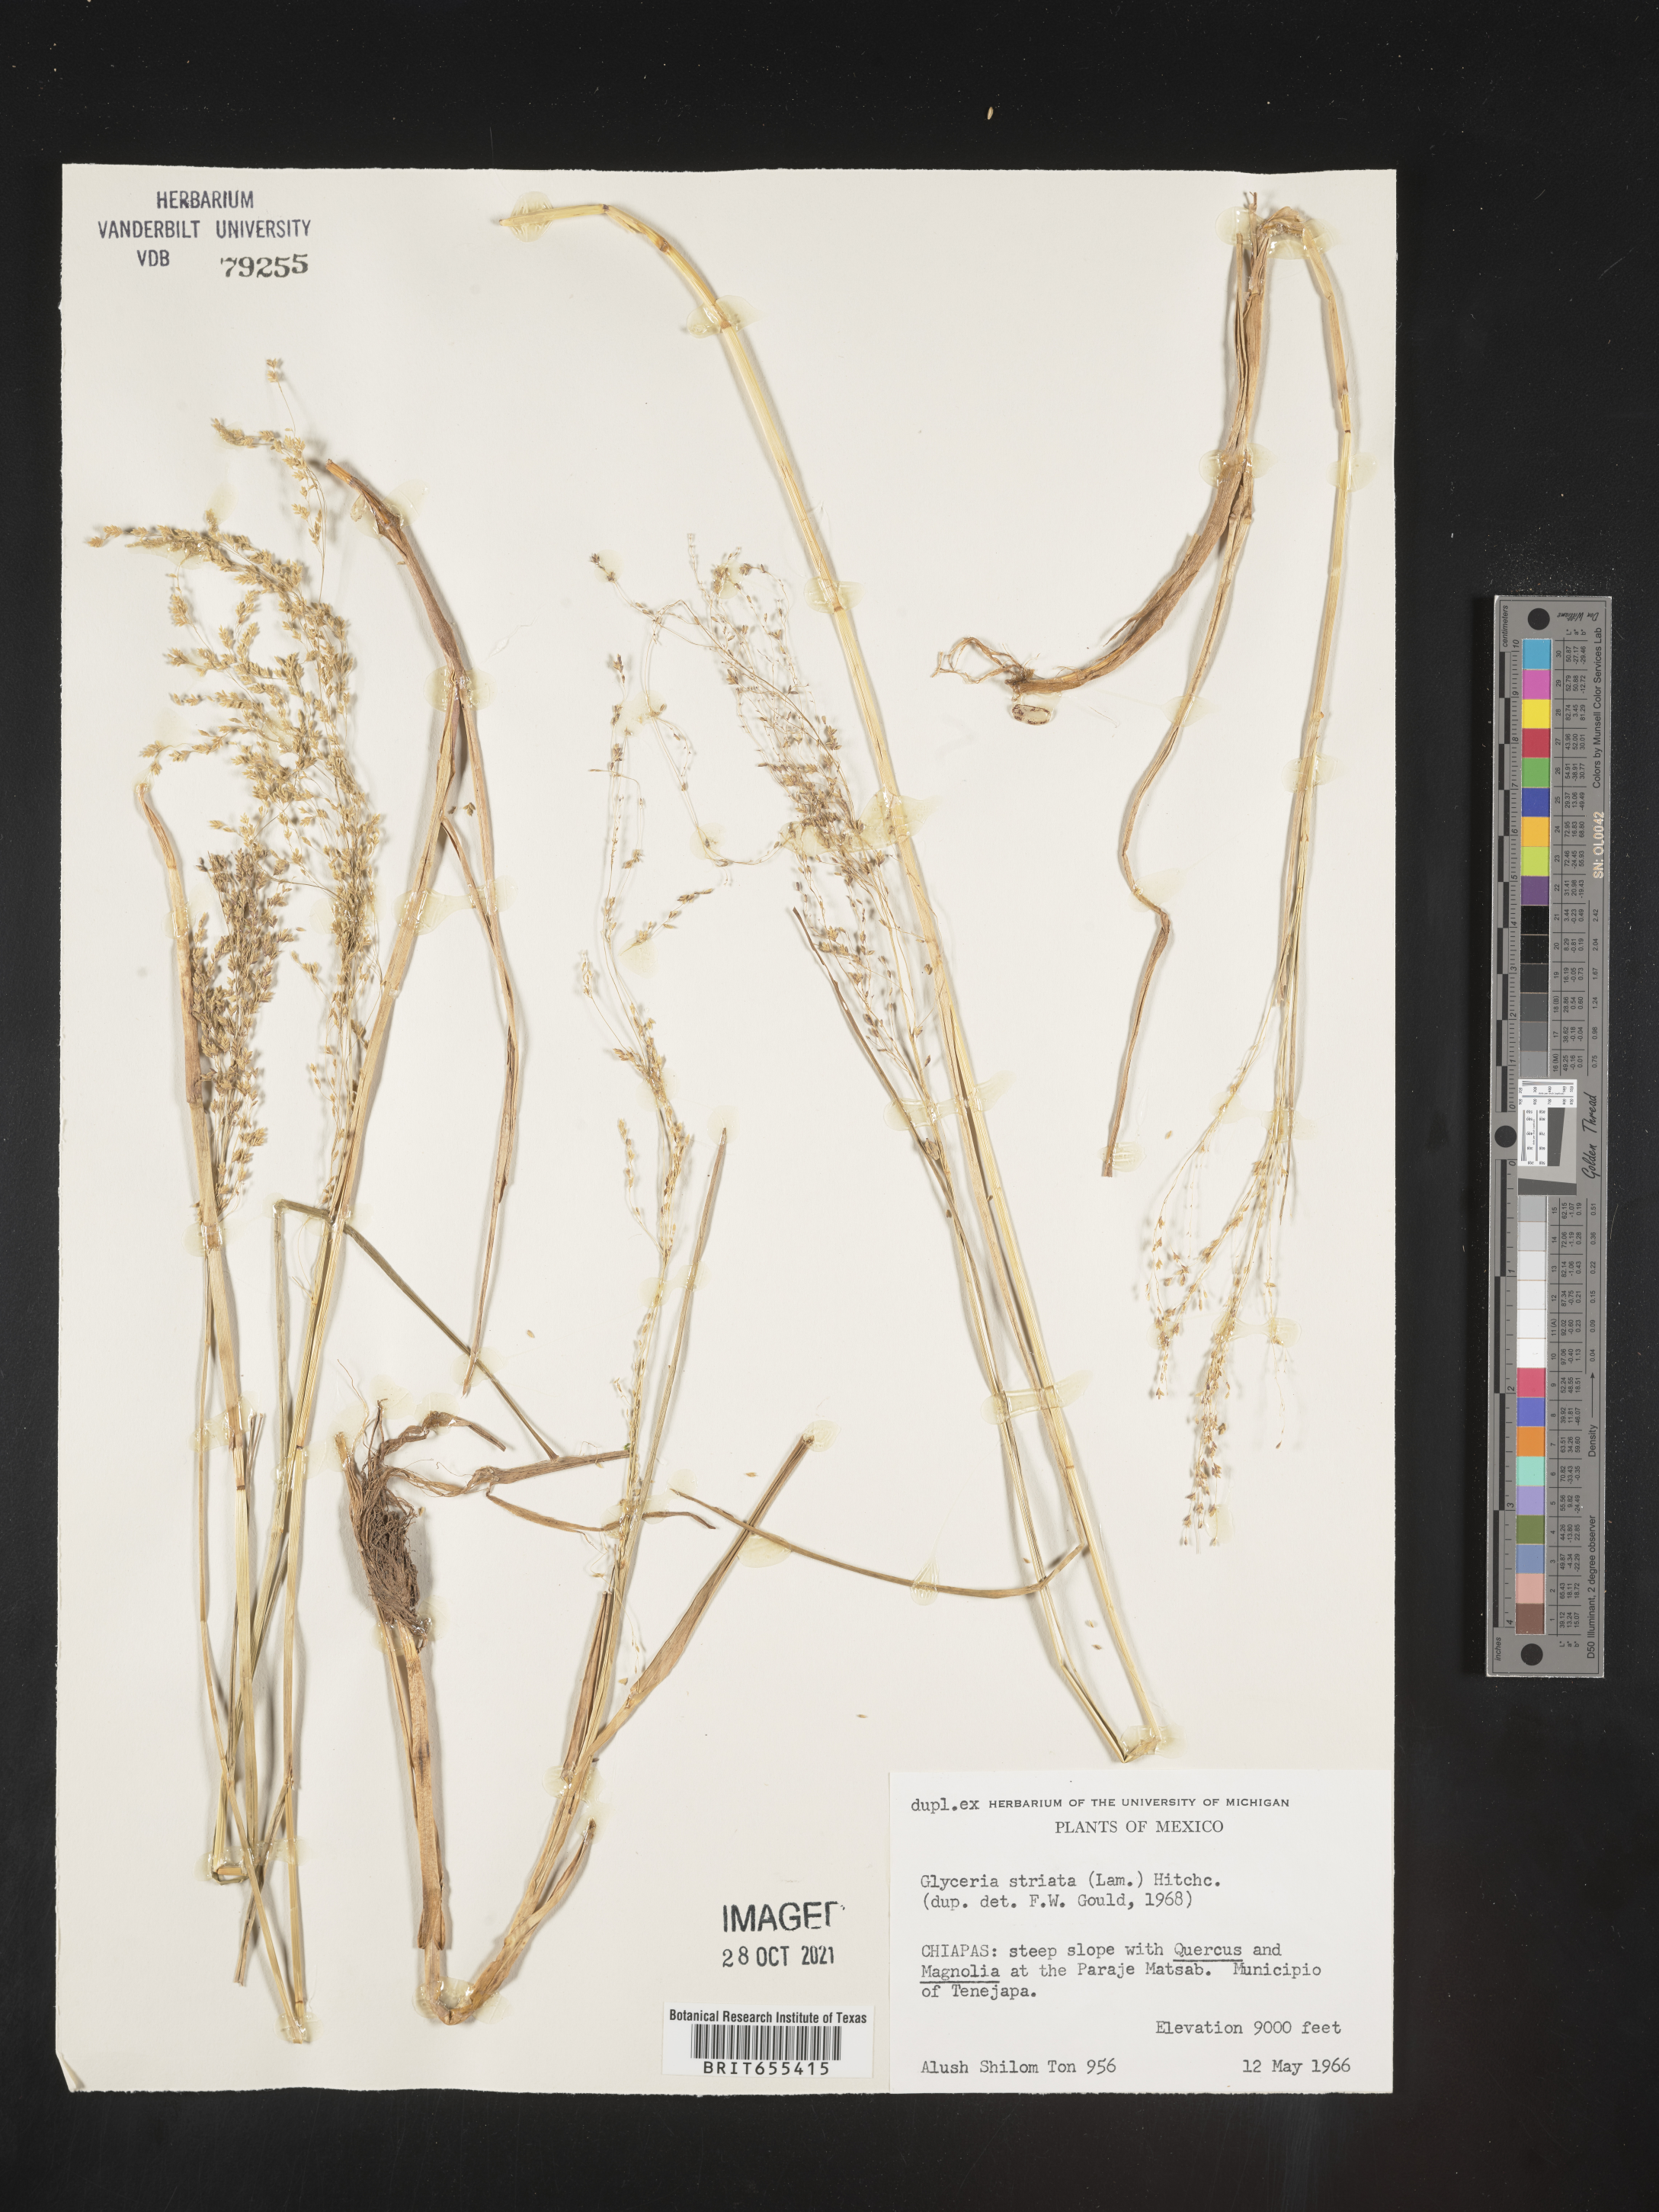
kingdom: Plantae
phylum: Tracheophyta
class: Liliopsida
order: Poales
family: Poaceae
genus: Glyceria
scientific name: Glyceria
